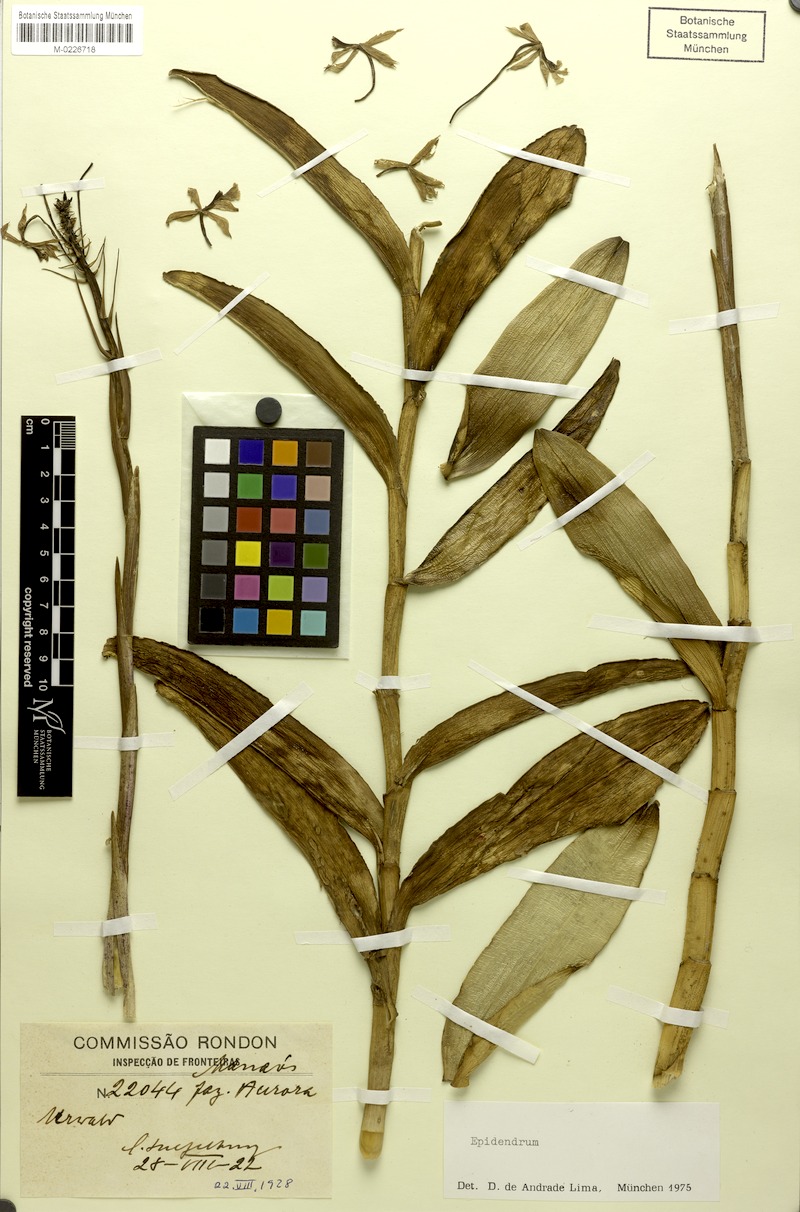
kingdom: Plantae
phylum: Tracheophyta
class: Liliopsida
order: Asparagales
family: Orchidaceae
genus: Epidendrum
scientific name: Epidendrum
